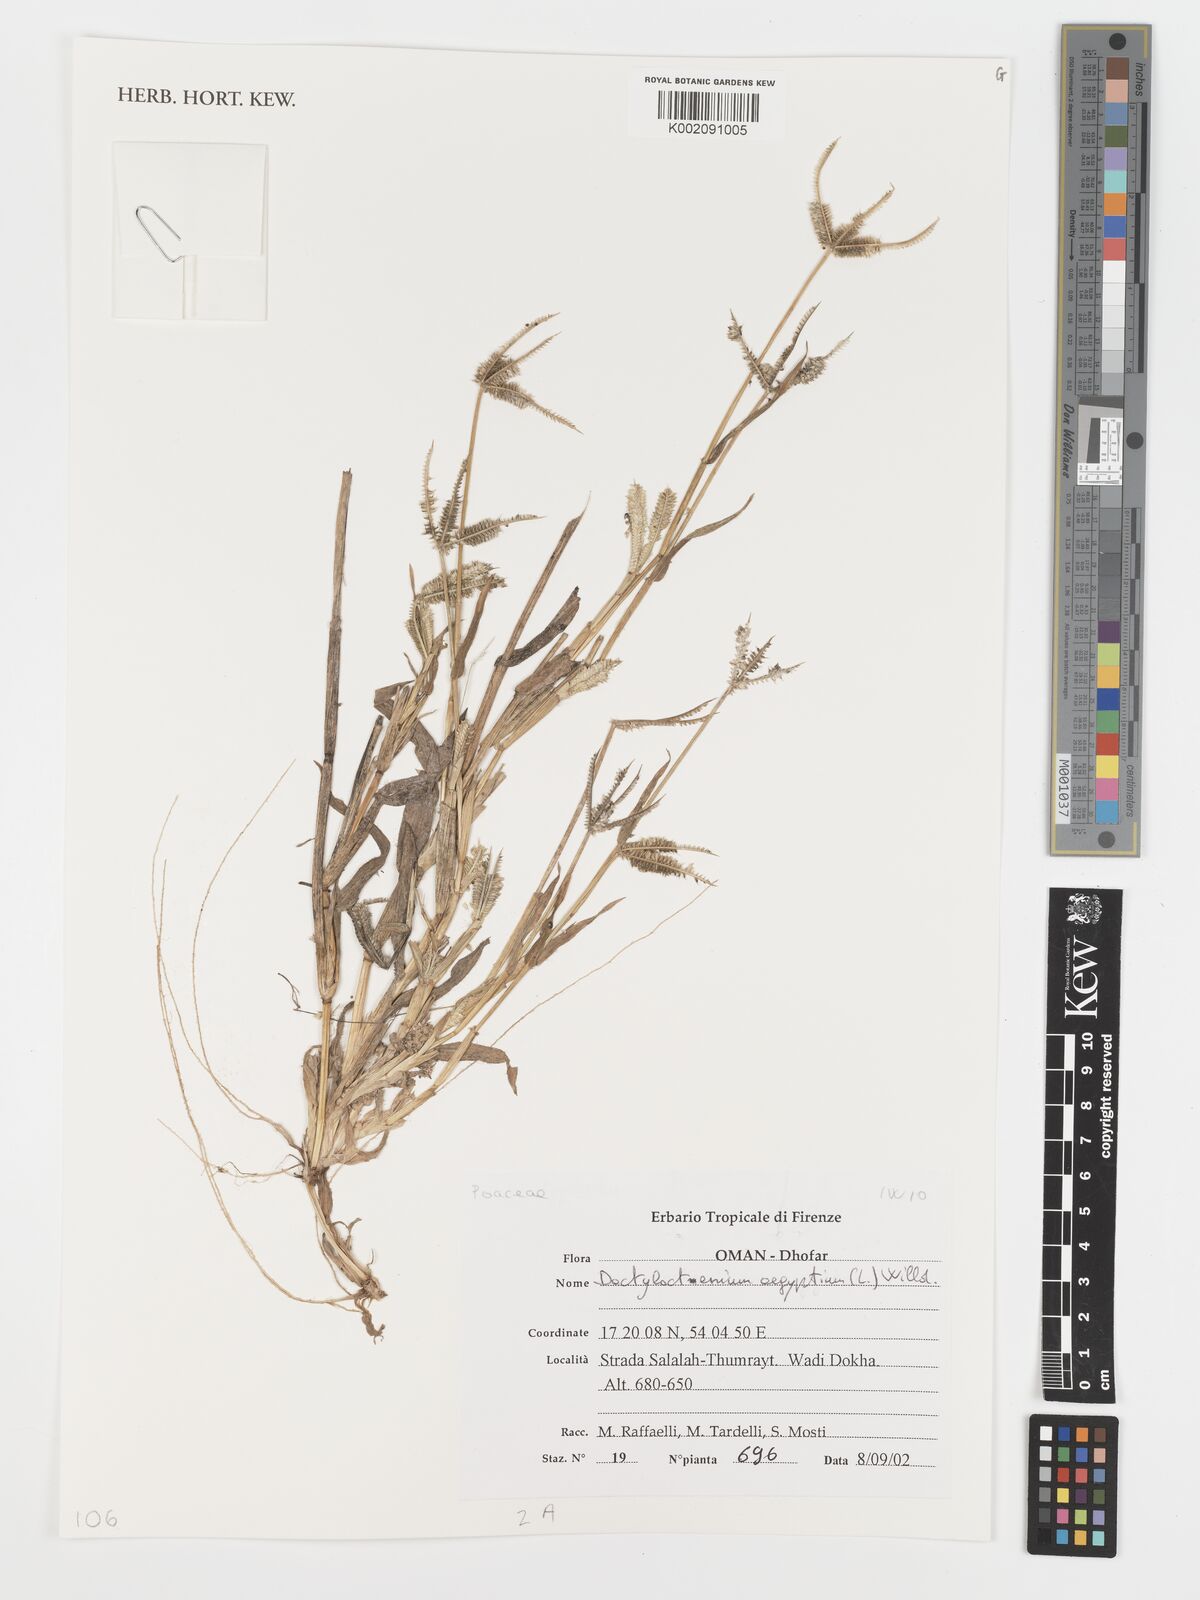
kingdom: Plantae
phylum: Tracheophyta
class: Liliopsida
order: Poales
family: Poaceae
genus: Dactyloctenium
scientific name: Dactyloctenium aegyptium
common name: Egyptian grass
